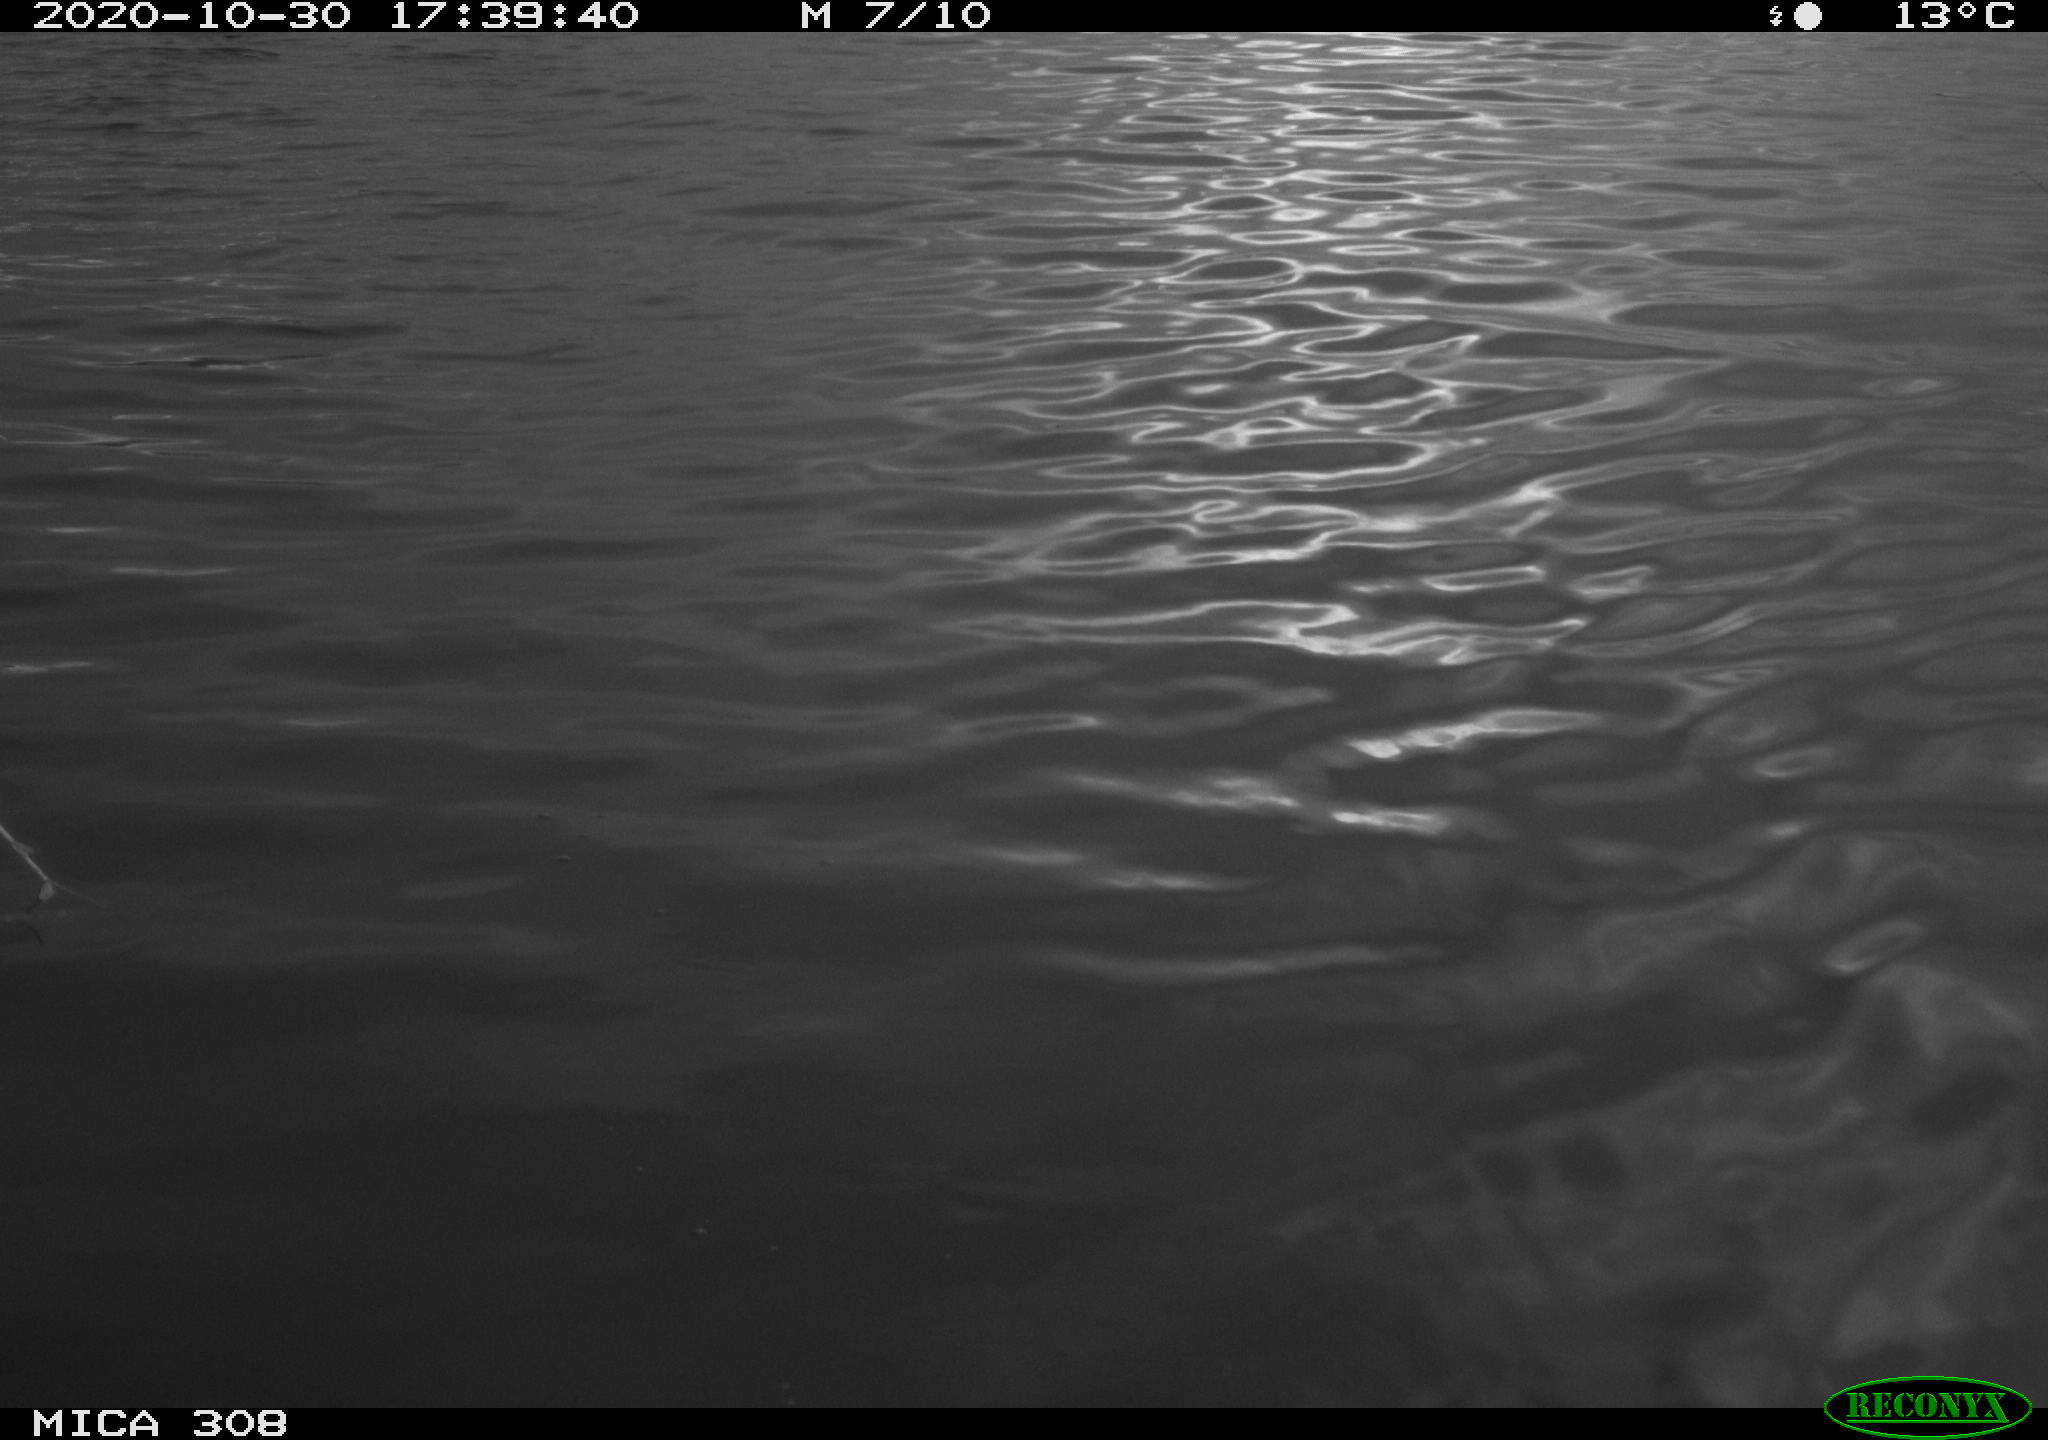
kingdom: Animalia
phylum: Chordata
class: Aves
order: Anseriformes
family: Anatidae
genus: Anas
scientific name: Anas platyrhynchos
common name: Mallard
